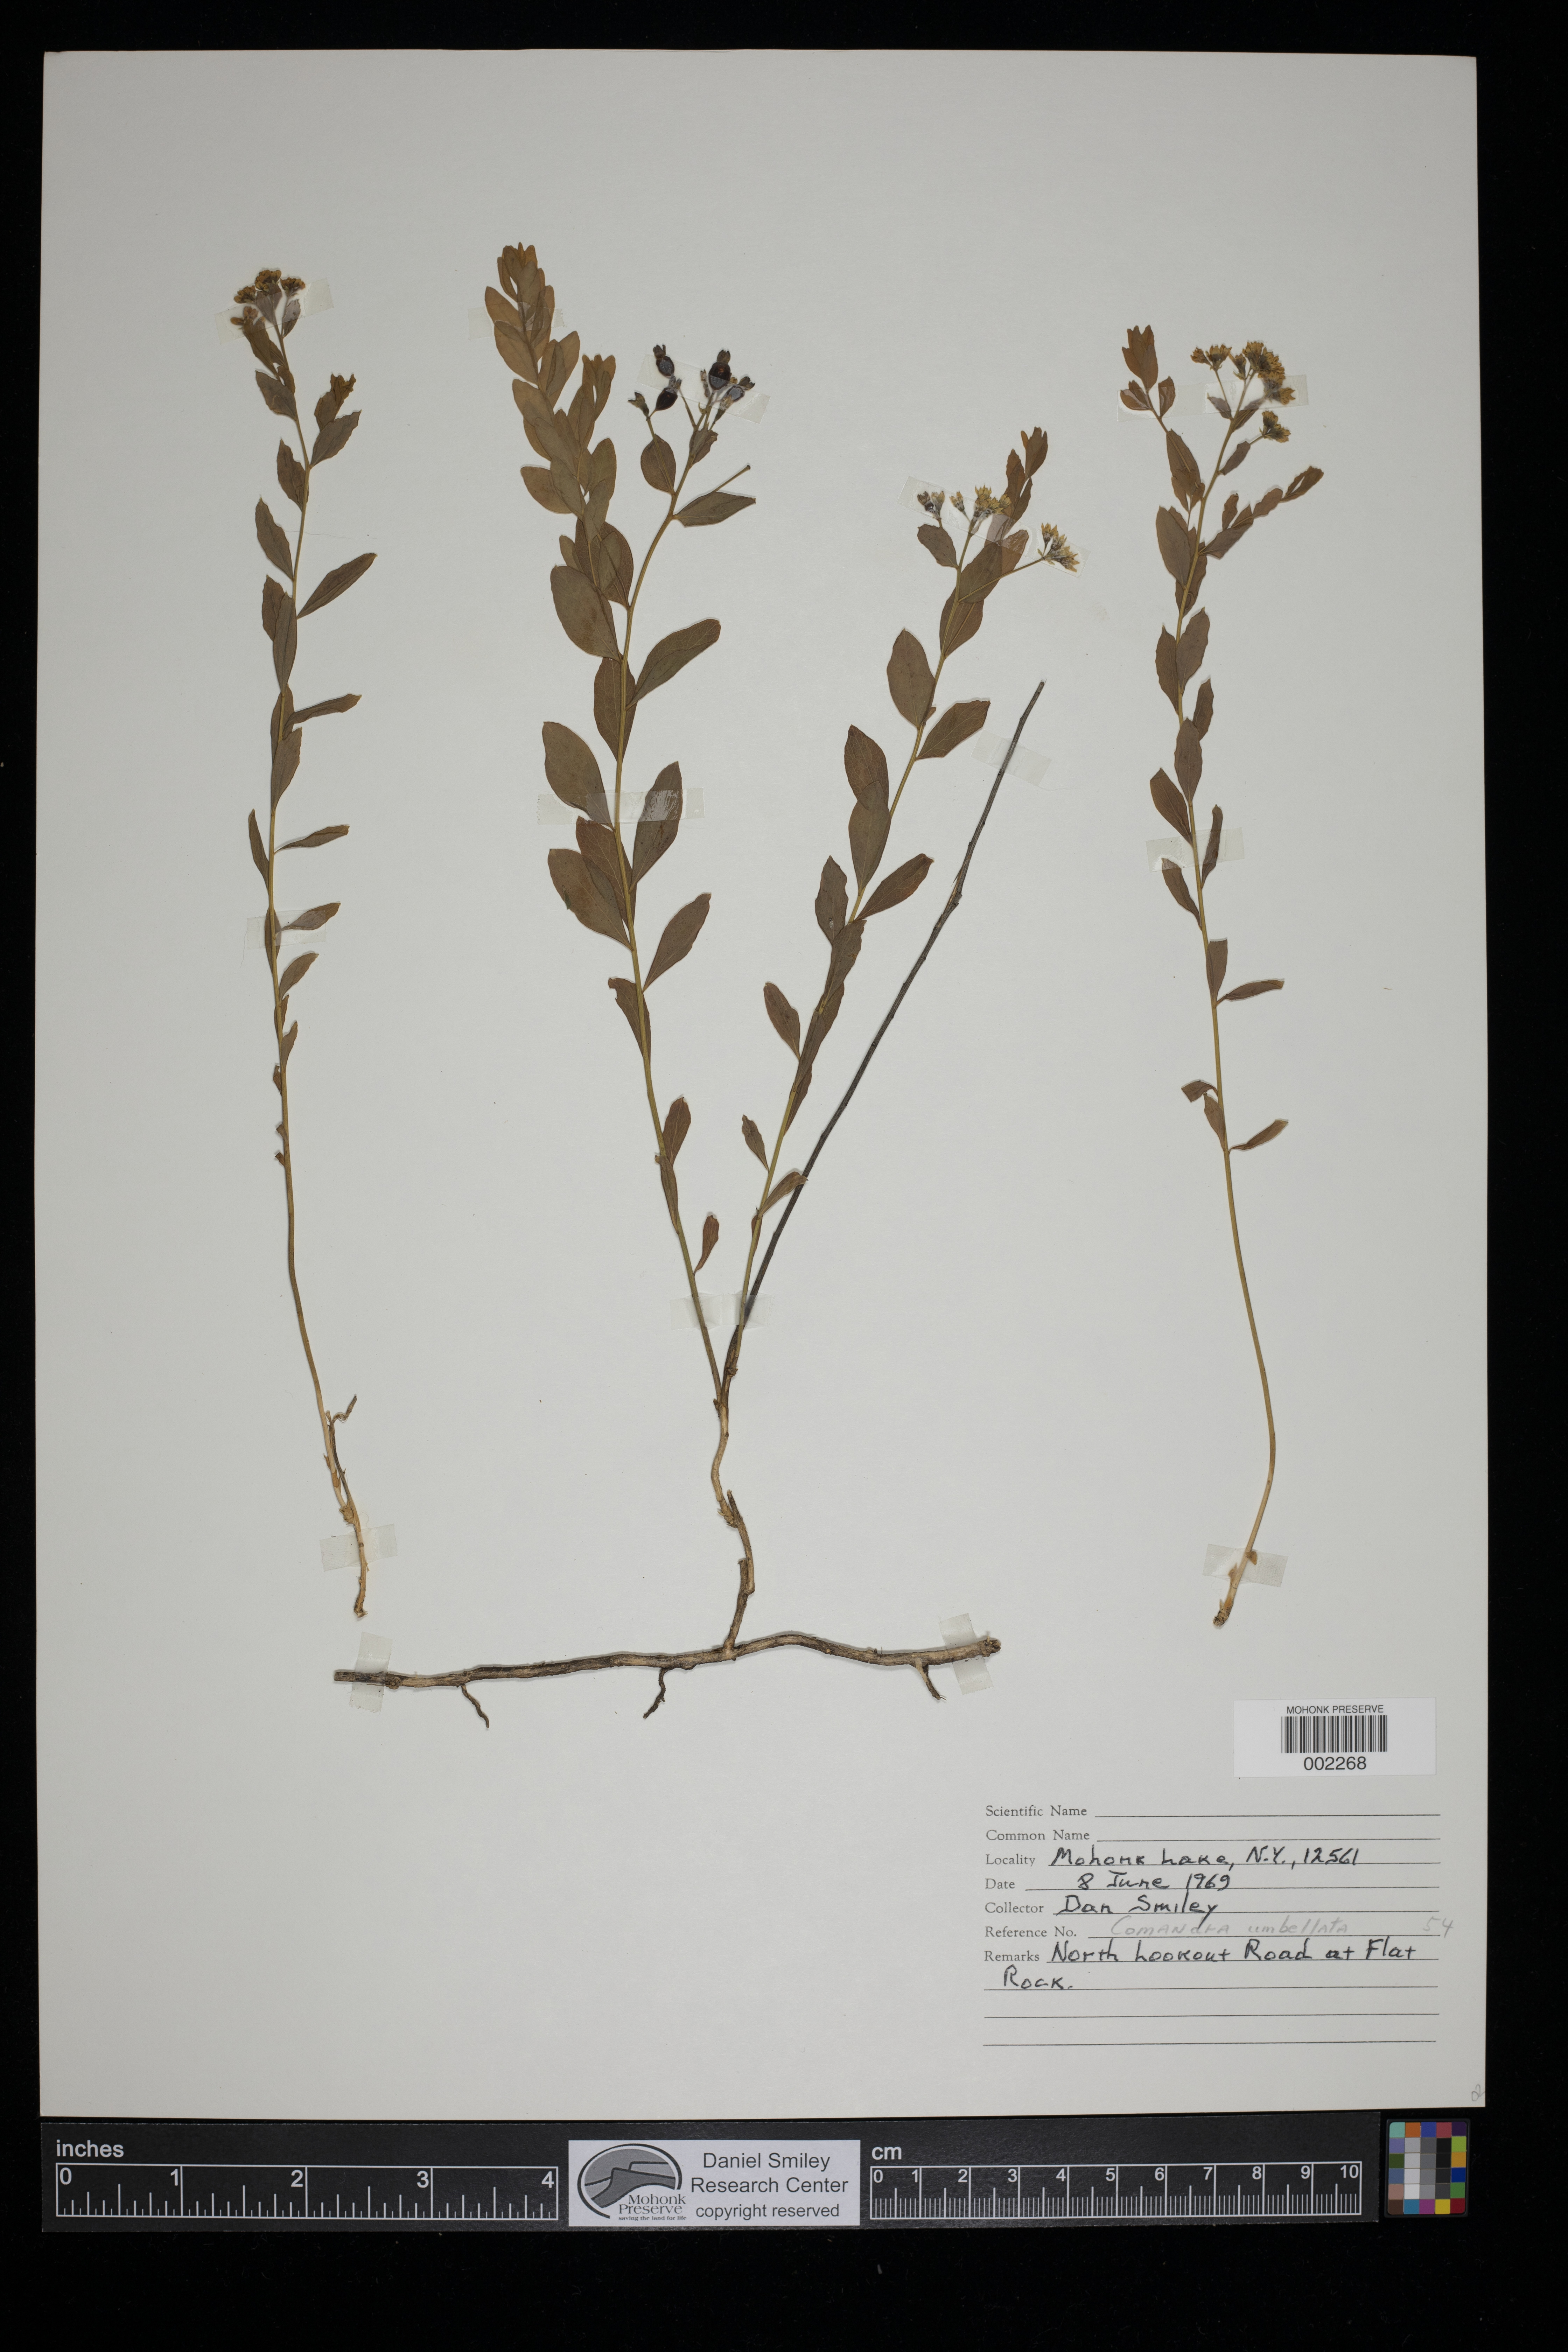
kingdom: Plantae
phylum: Tracheophyta
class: Magnoliopsida
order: Santalales
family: Comandraceae
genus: Comandra
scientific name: Comandra umbellata
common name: Bastard toadflax
